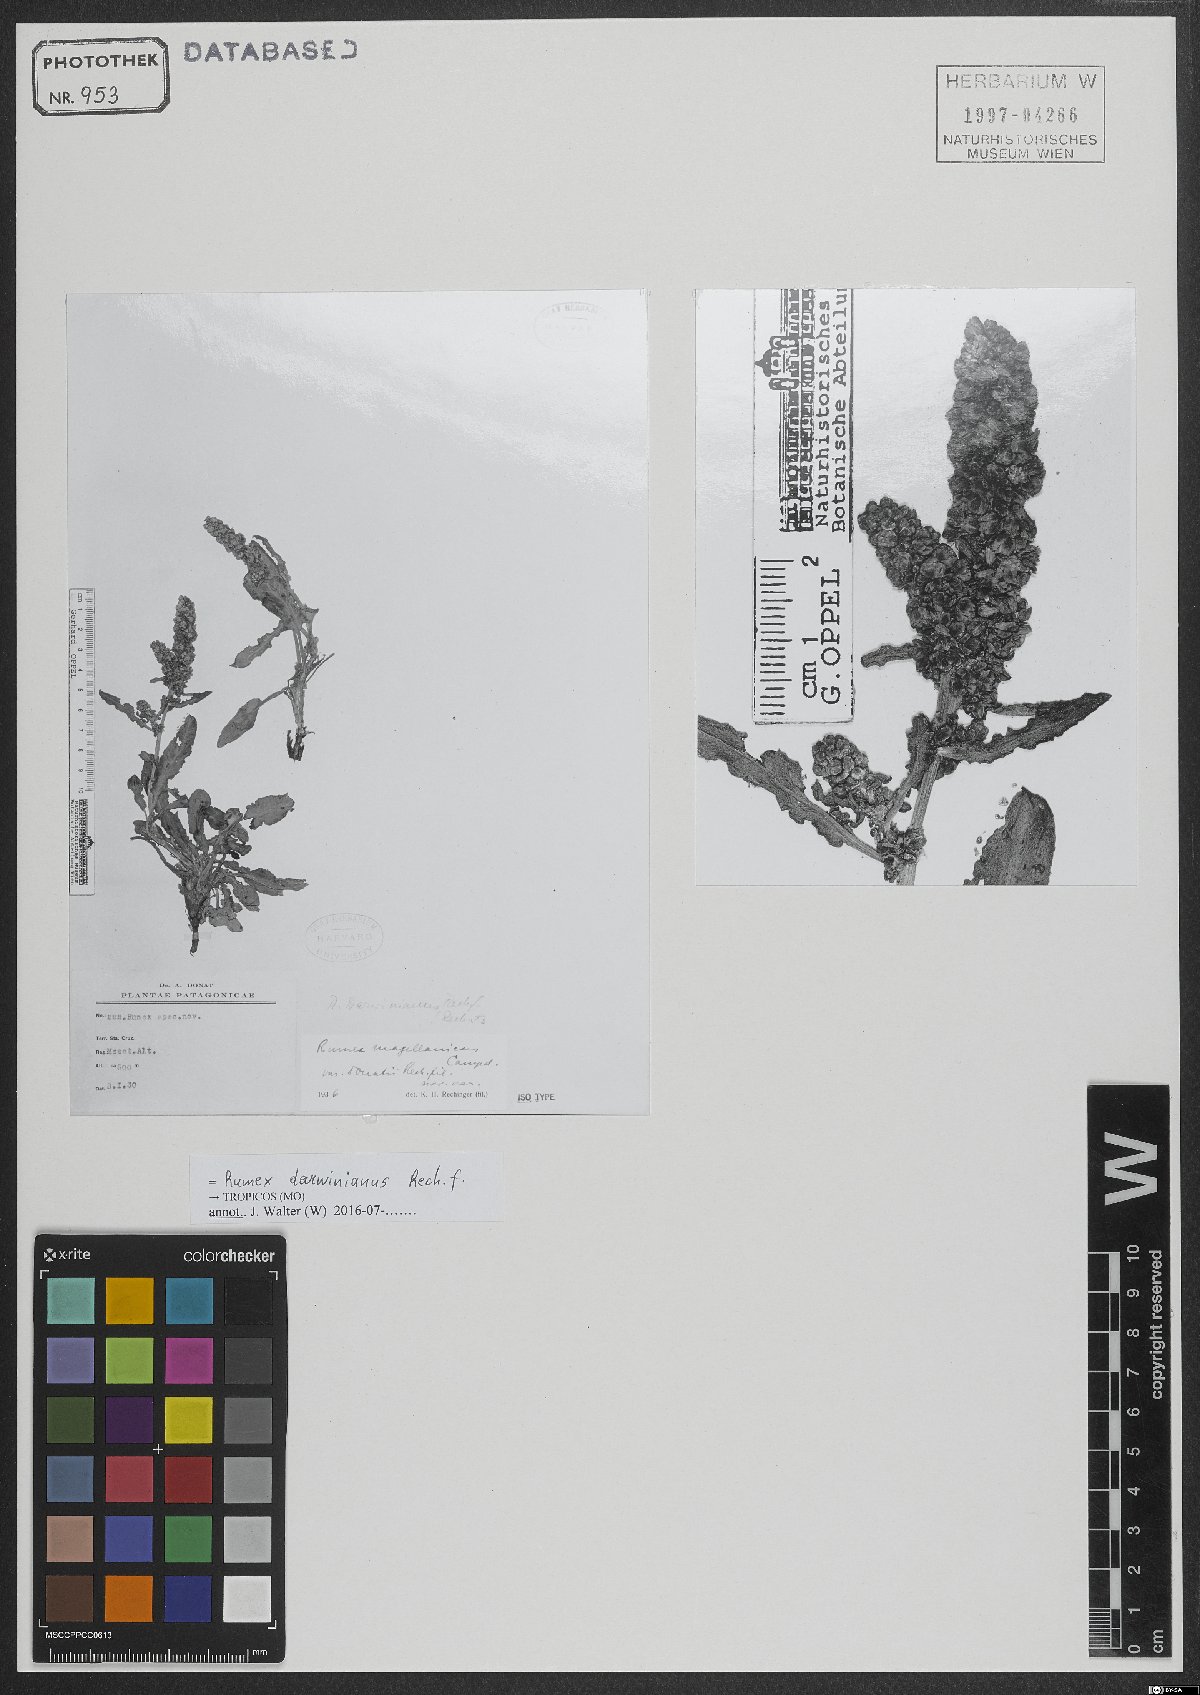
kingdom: Plantae
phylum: Tracheophyta
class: Magnoliopsida
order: Caryophyllales
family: Polygonaceae
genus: Rumex
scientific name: Rumex darwinianus
